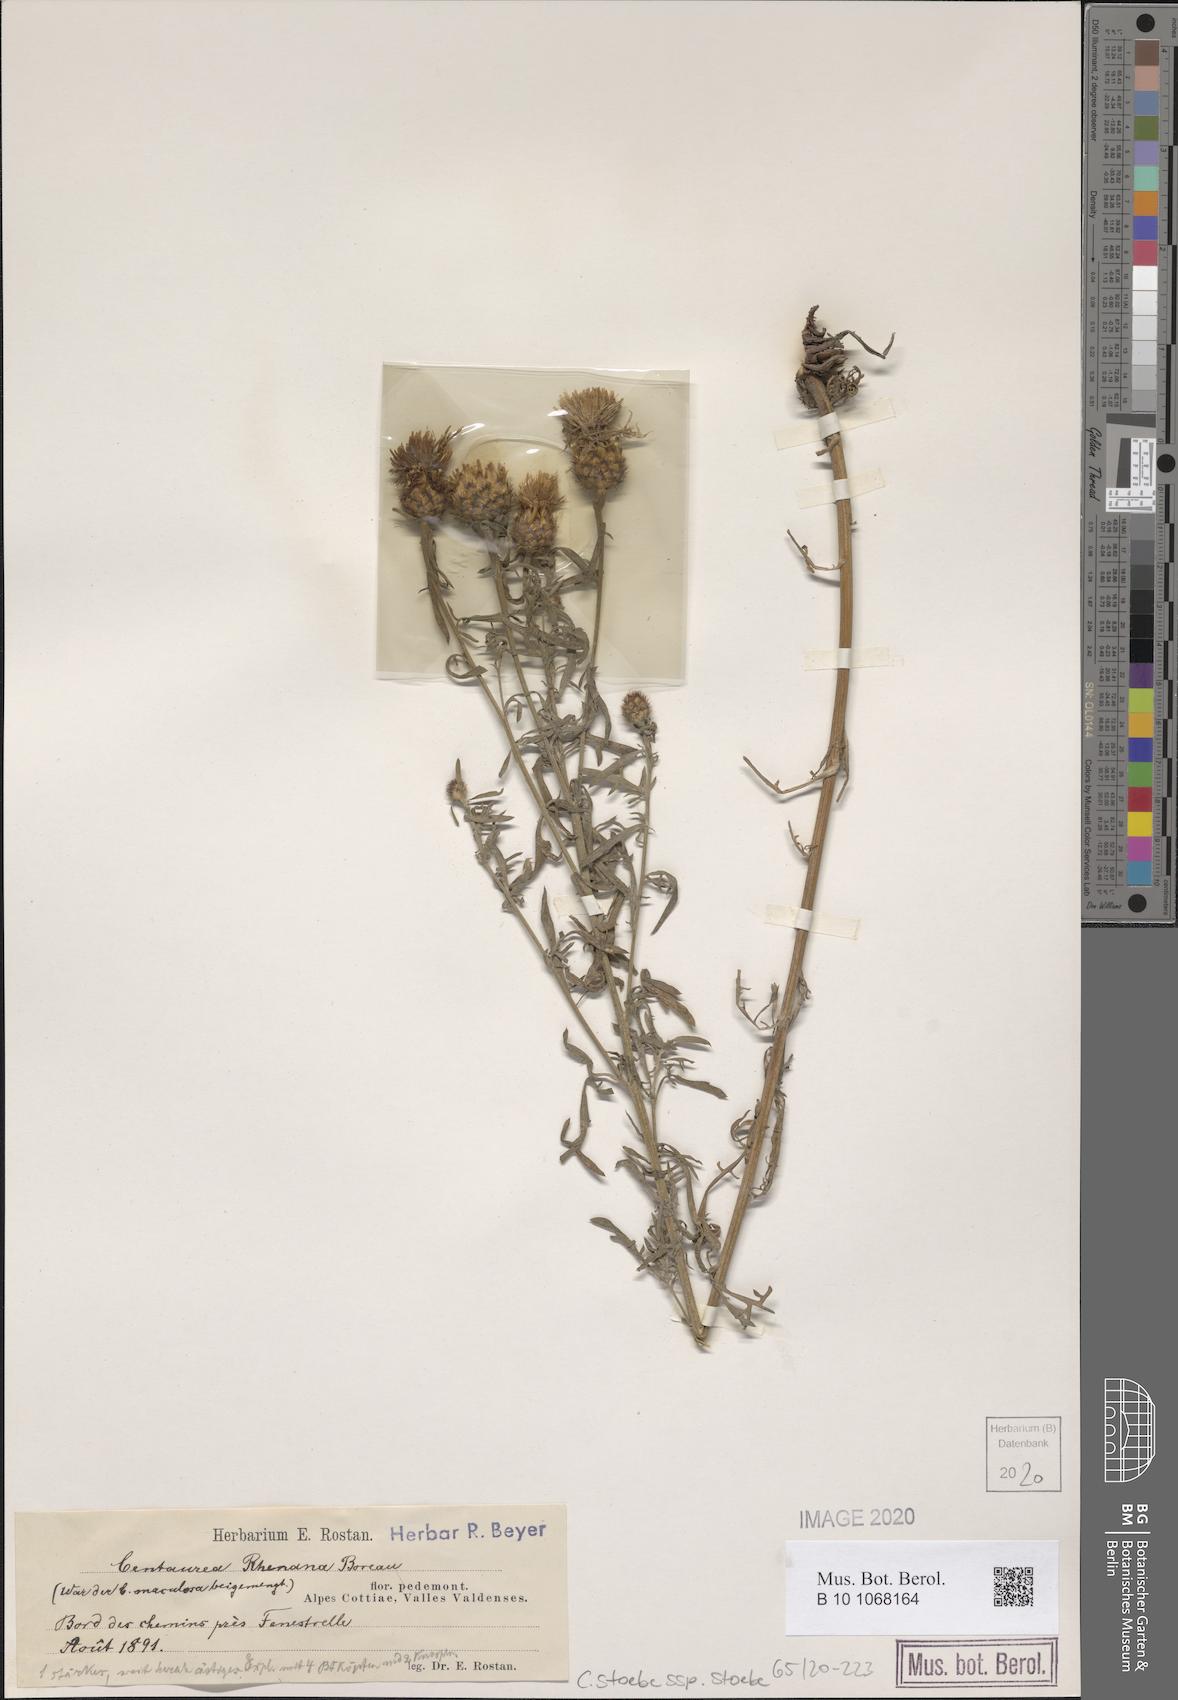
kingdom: Plantae
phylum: Tracheophyta
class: Magnoliopsida
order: Asterales
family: Asteraceae
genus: Centaurea
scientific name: Centaurea stoebe
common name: Spotted knapweed
